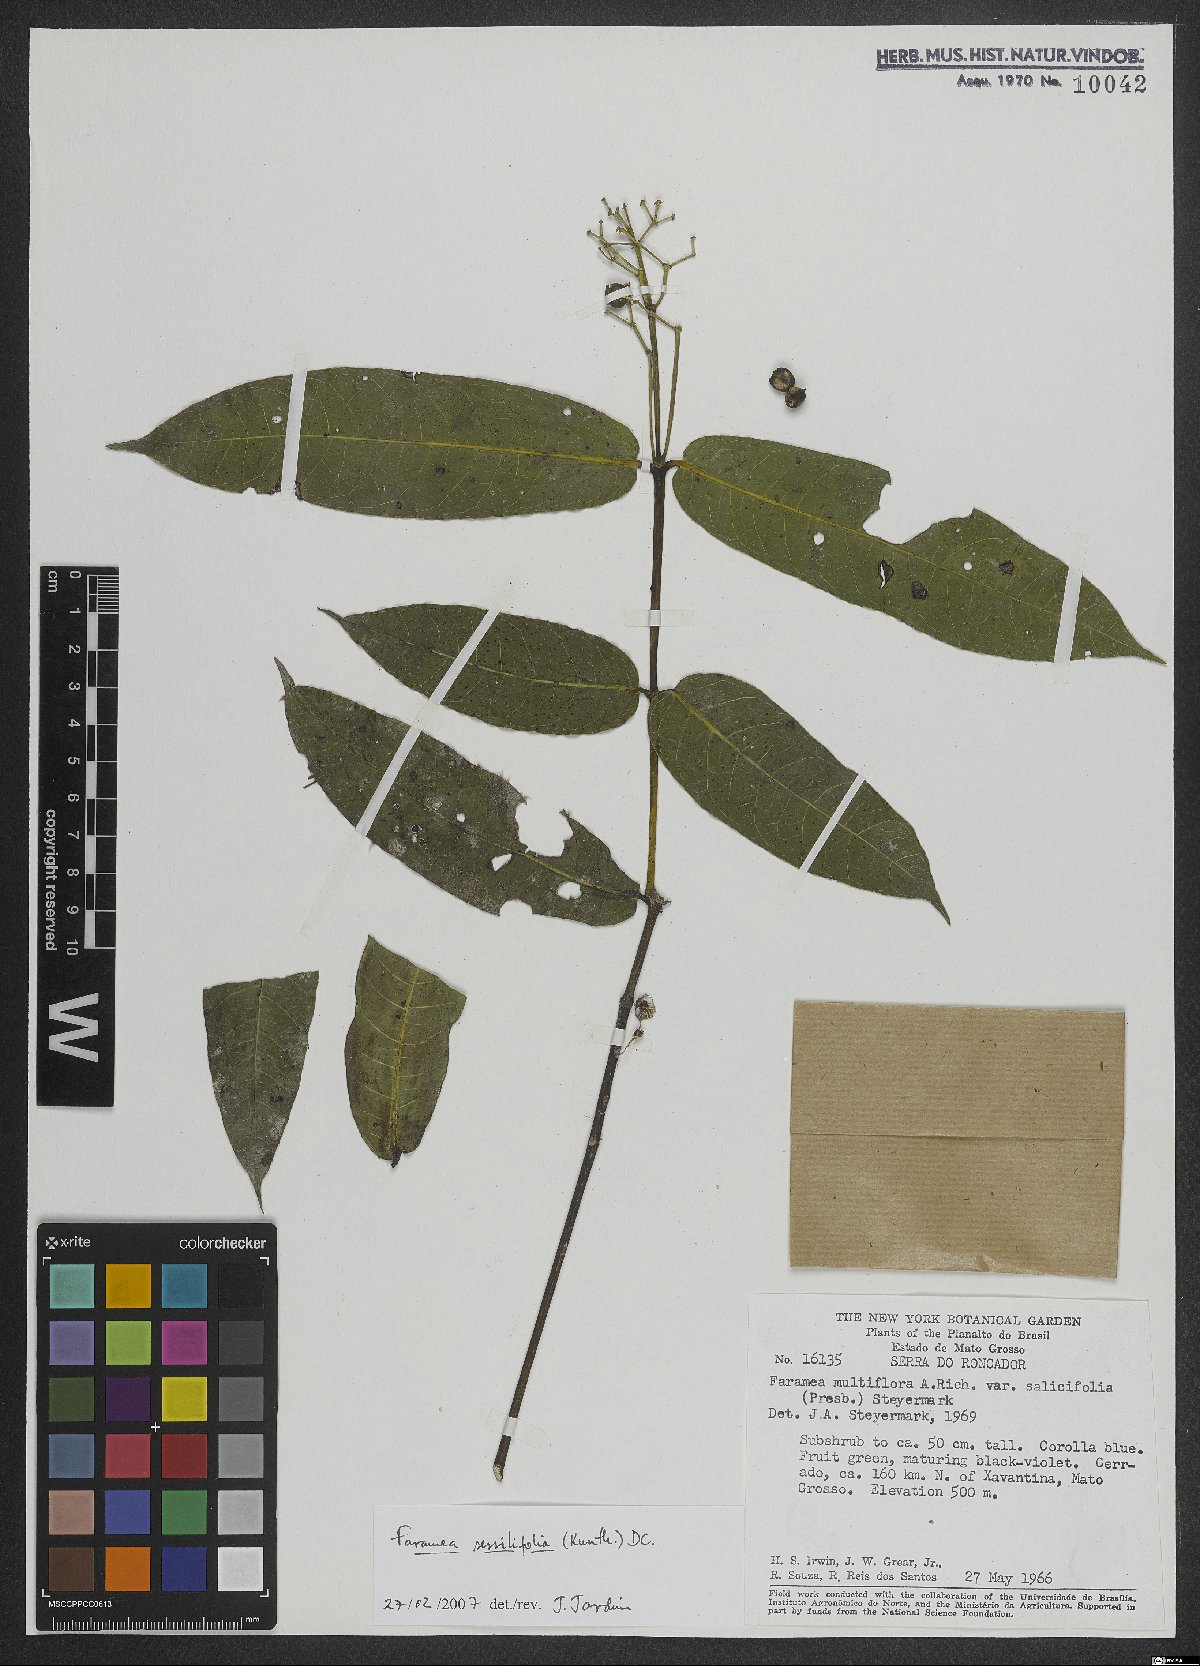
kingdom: Plantae
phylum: Tracheophyta
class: Magnoliopsida
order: Gentianales
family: Rubiaceae
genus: Faramea
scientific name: Faramea sessilifolia
